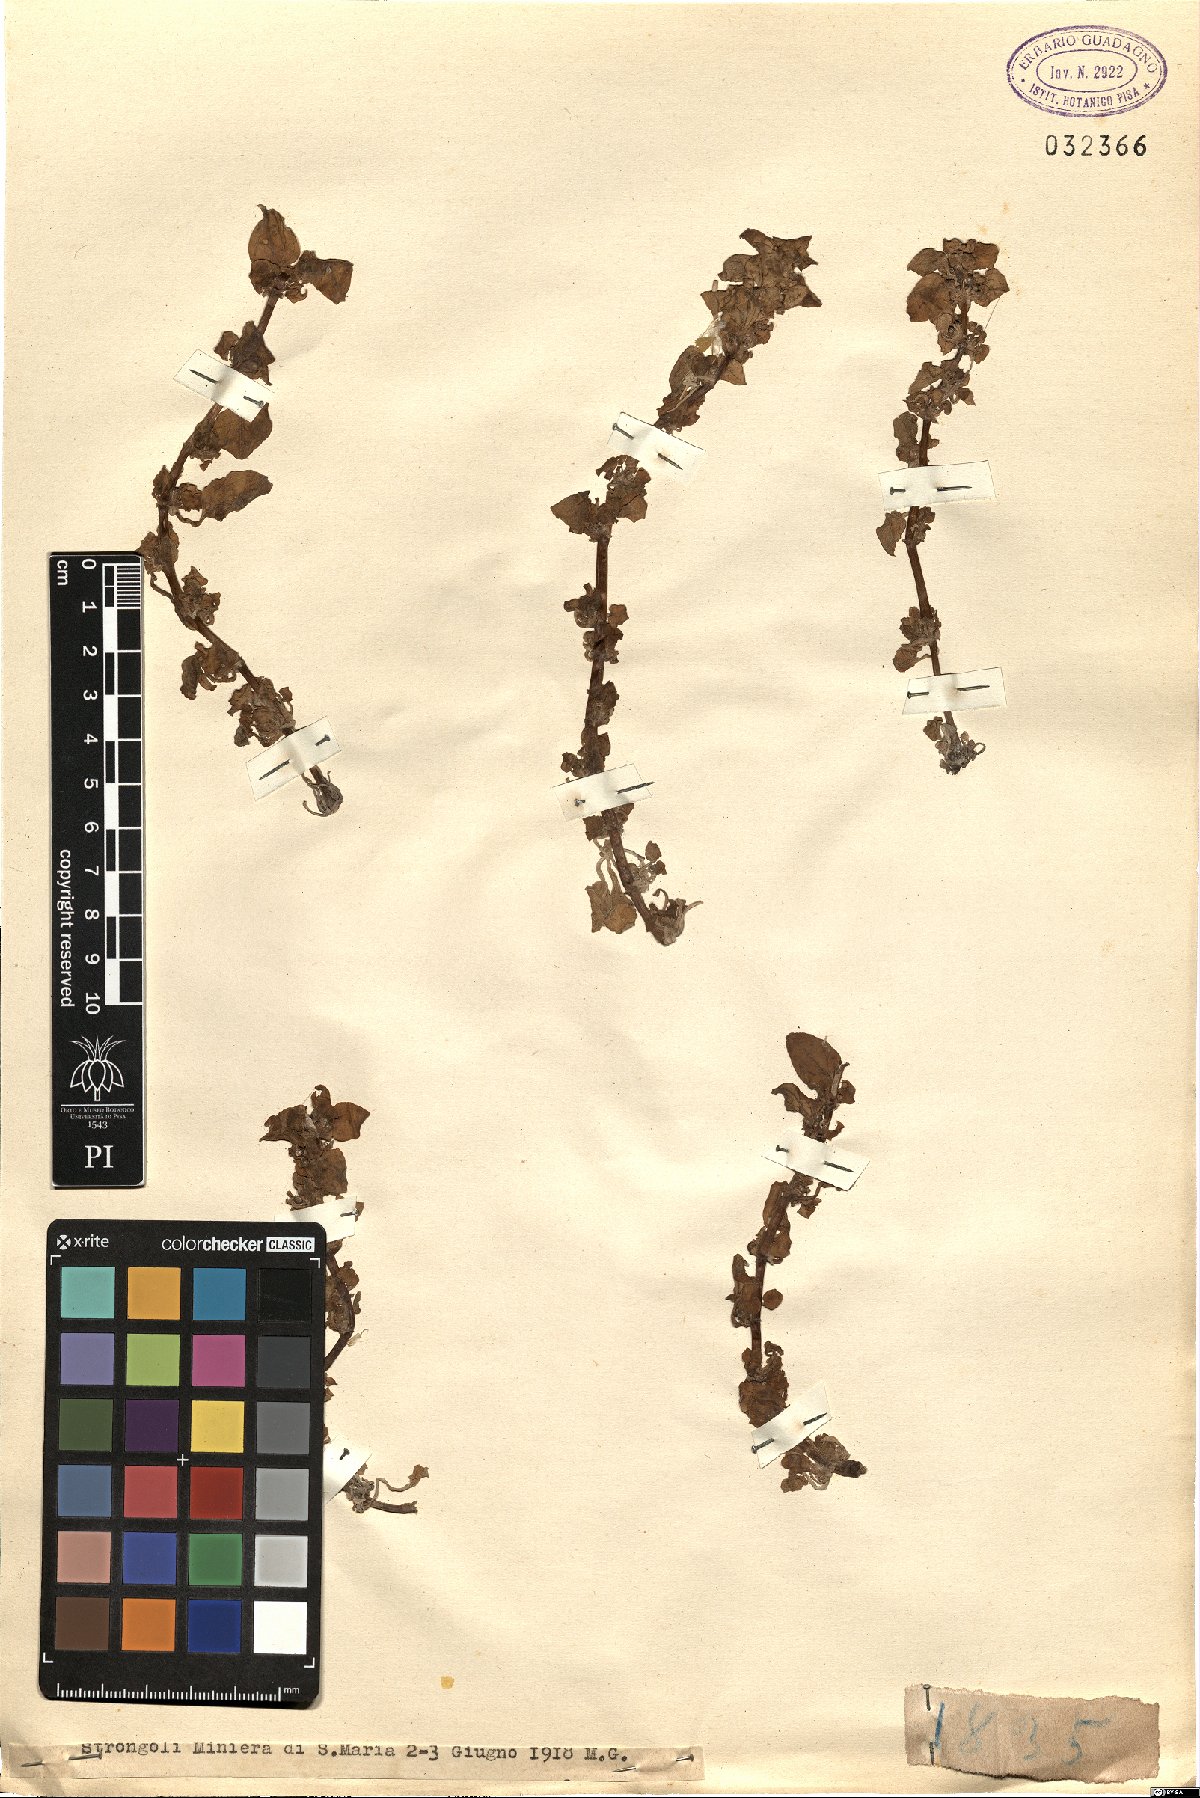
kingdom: Plantae
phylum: Tracheophyta
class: Magnoliopsida
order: Gentianales
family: Rubiaceae
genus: Theligonum
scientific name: Theligonum cynocrambe
